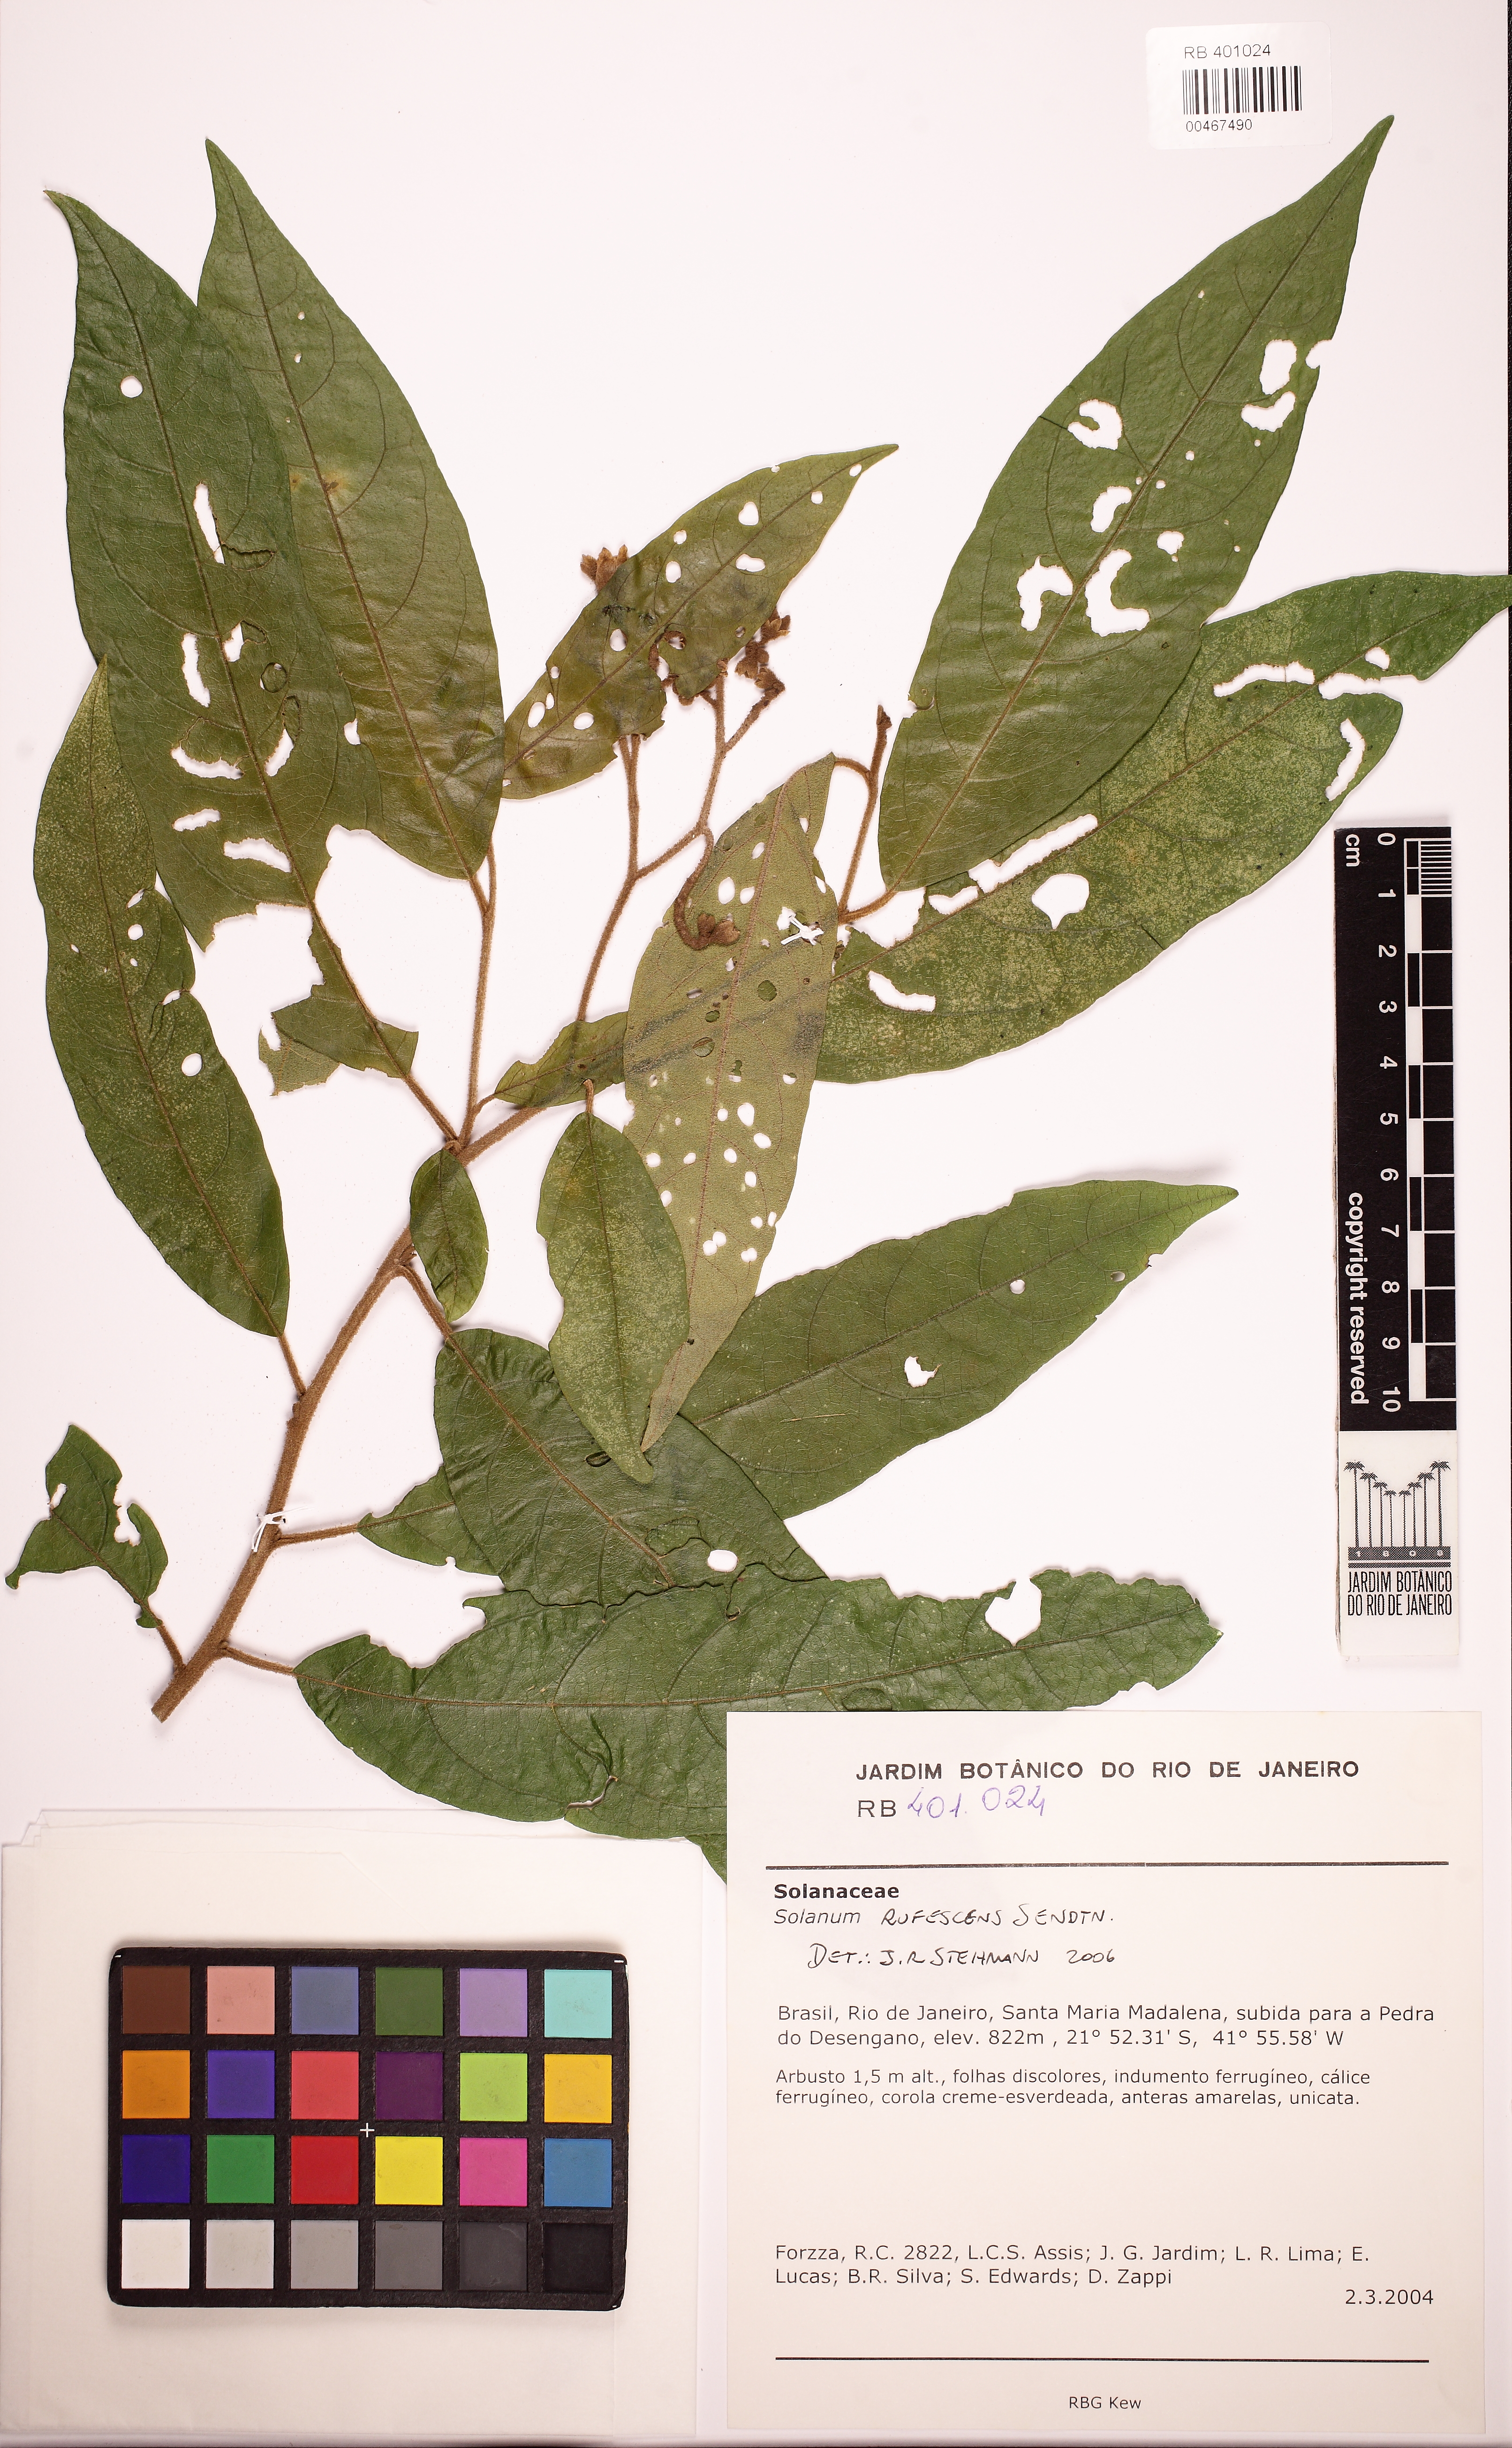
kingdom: Plantae
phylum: Tracheophyta
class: Magnoliopsida
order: Solanales
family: Solanaceae
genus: Solanum
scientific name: Solanum rufescens
